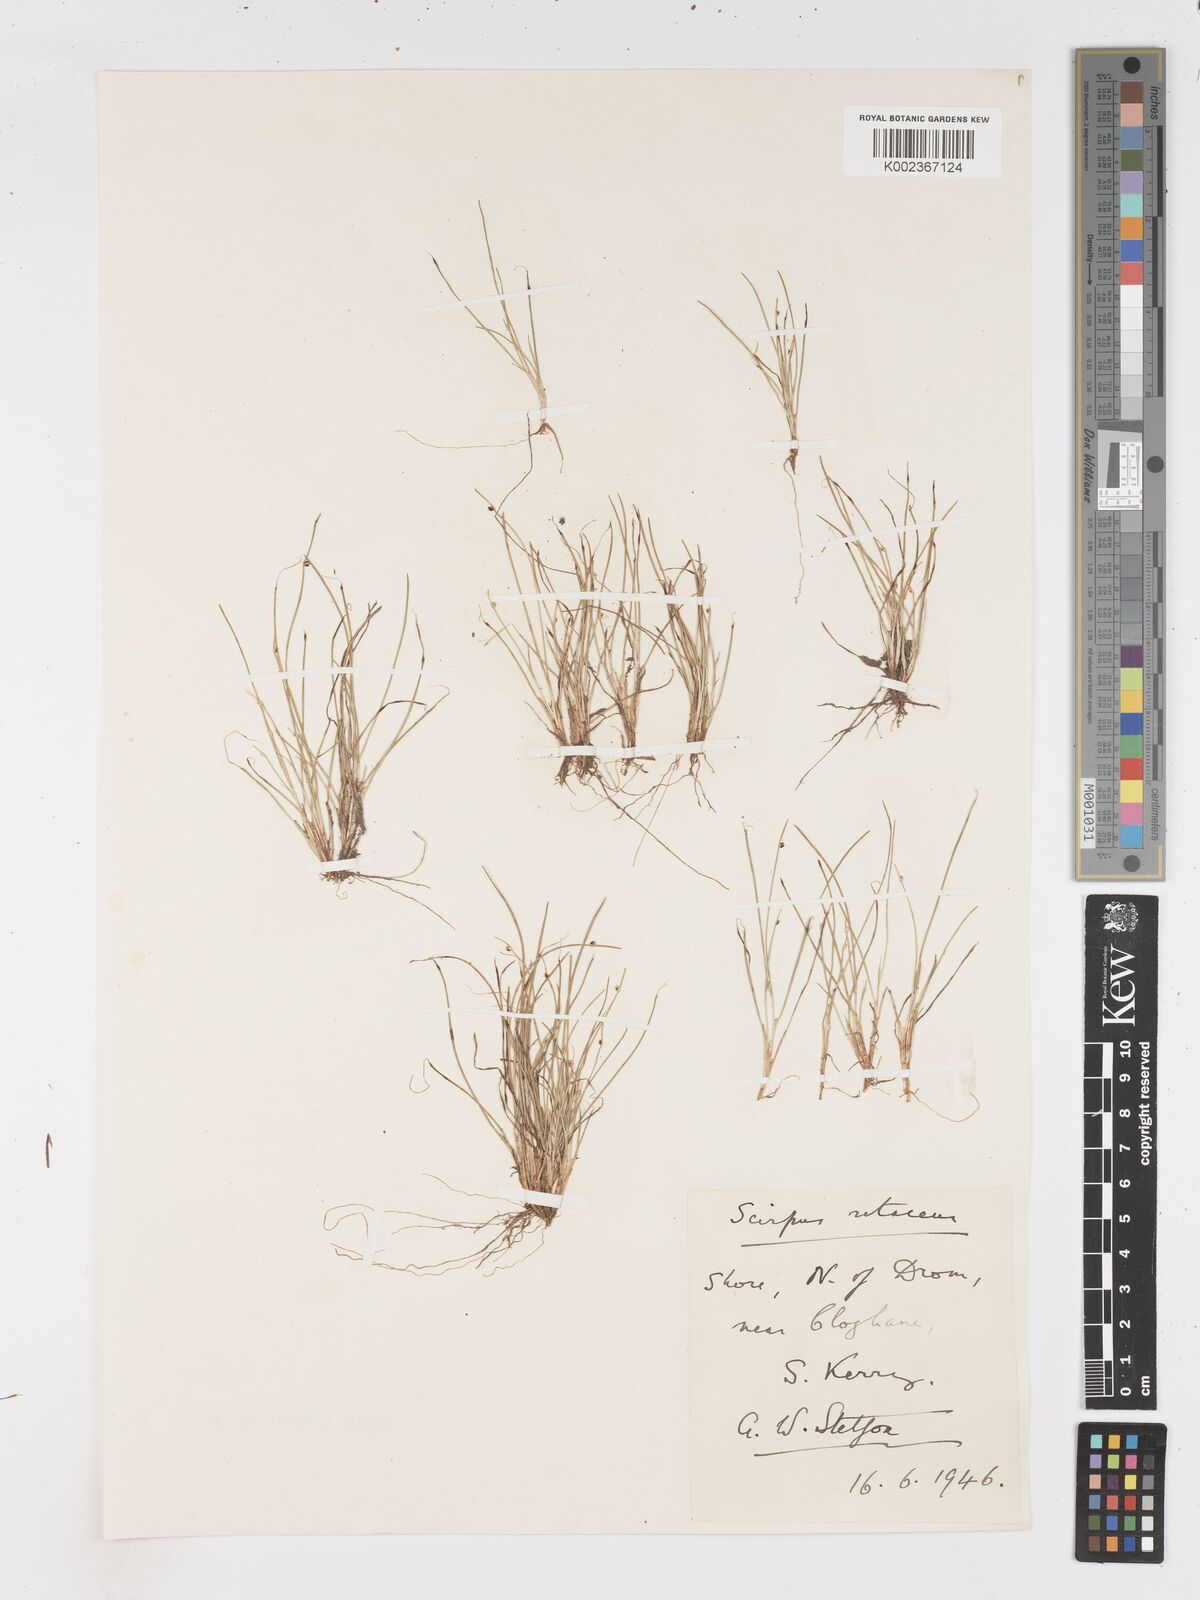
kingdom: Plantae
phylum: Tracheophyta
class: Liliopsida
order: Poales
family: Cyperaceae
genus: Isolepis
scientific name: Isolepis setacea
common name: Bristle club-rush
